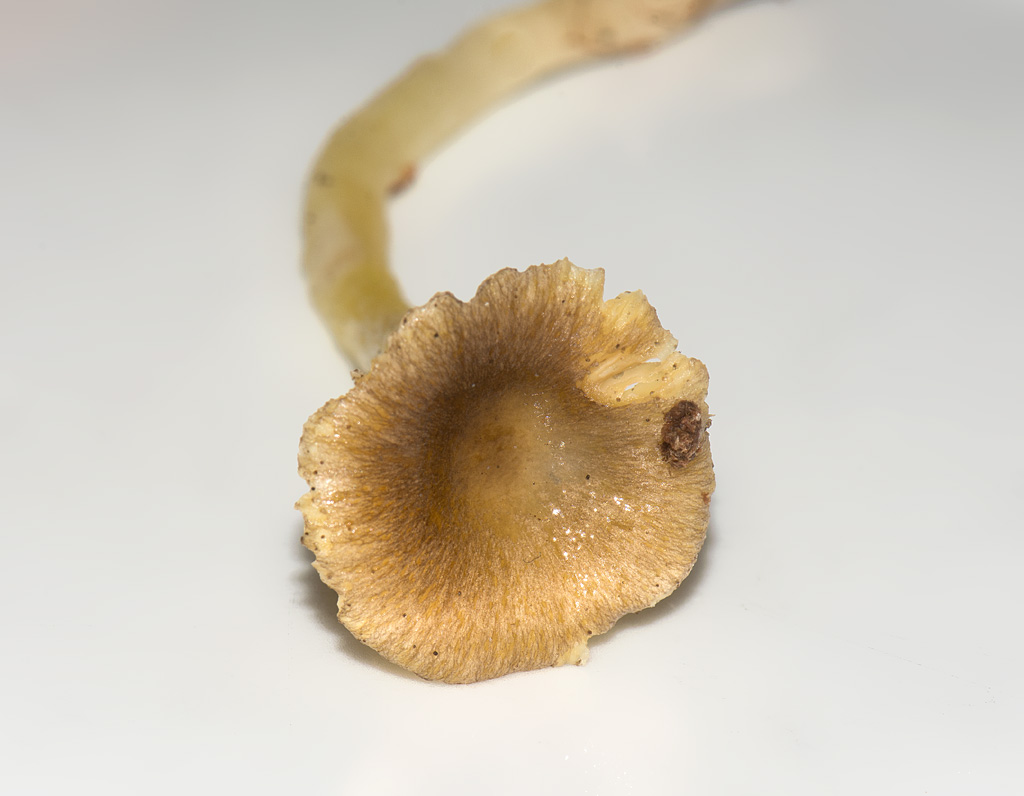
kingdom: Fungi
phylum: Basidiomycota
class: Agaricomycetes
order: Agaricales
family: Hygrophoraceae
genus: Hygrophorus
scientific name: Hygrophorus
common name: sneglehat
